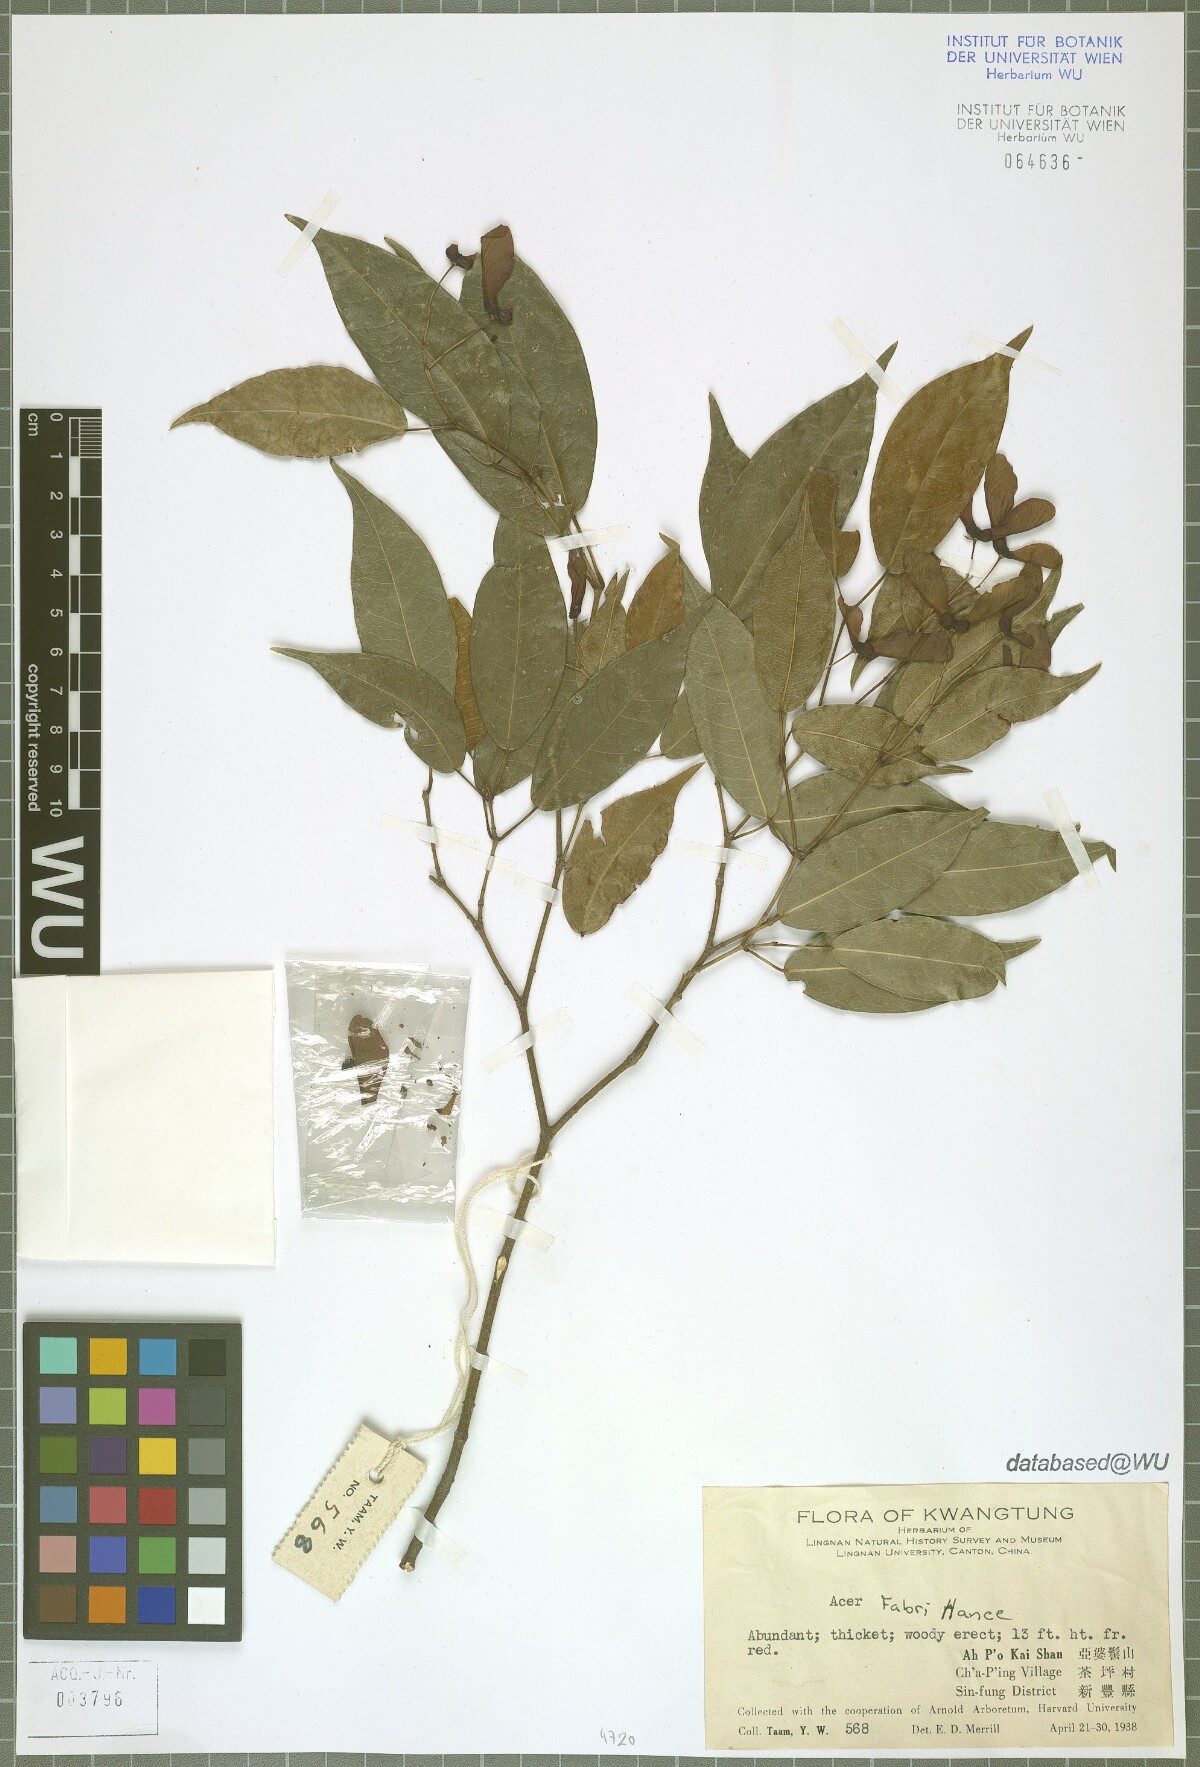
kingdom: Plantae
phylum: Tracheophyta
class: Magnoliopsida
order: Sapindales
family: Sapindaceae
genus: Acer
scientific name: Acer fabri
